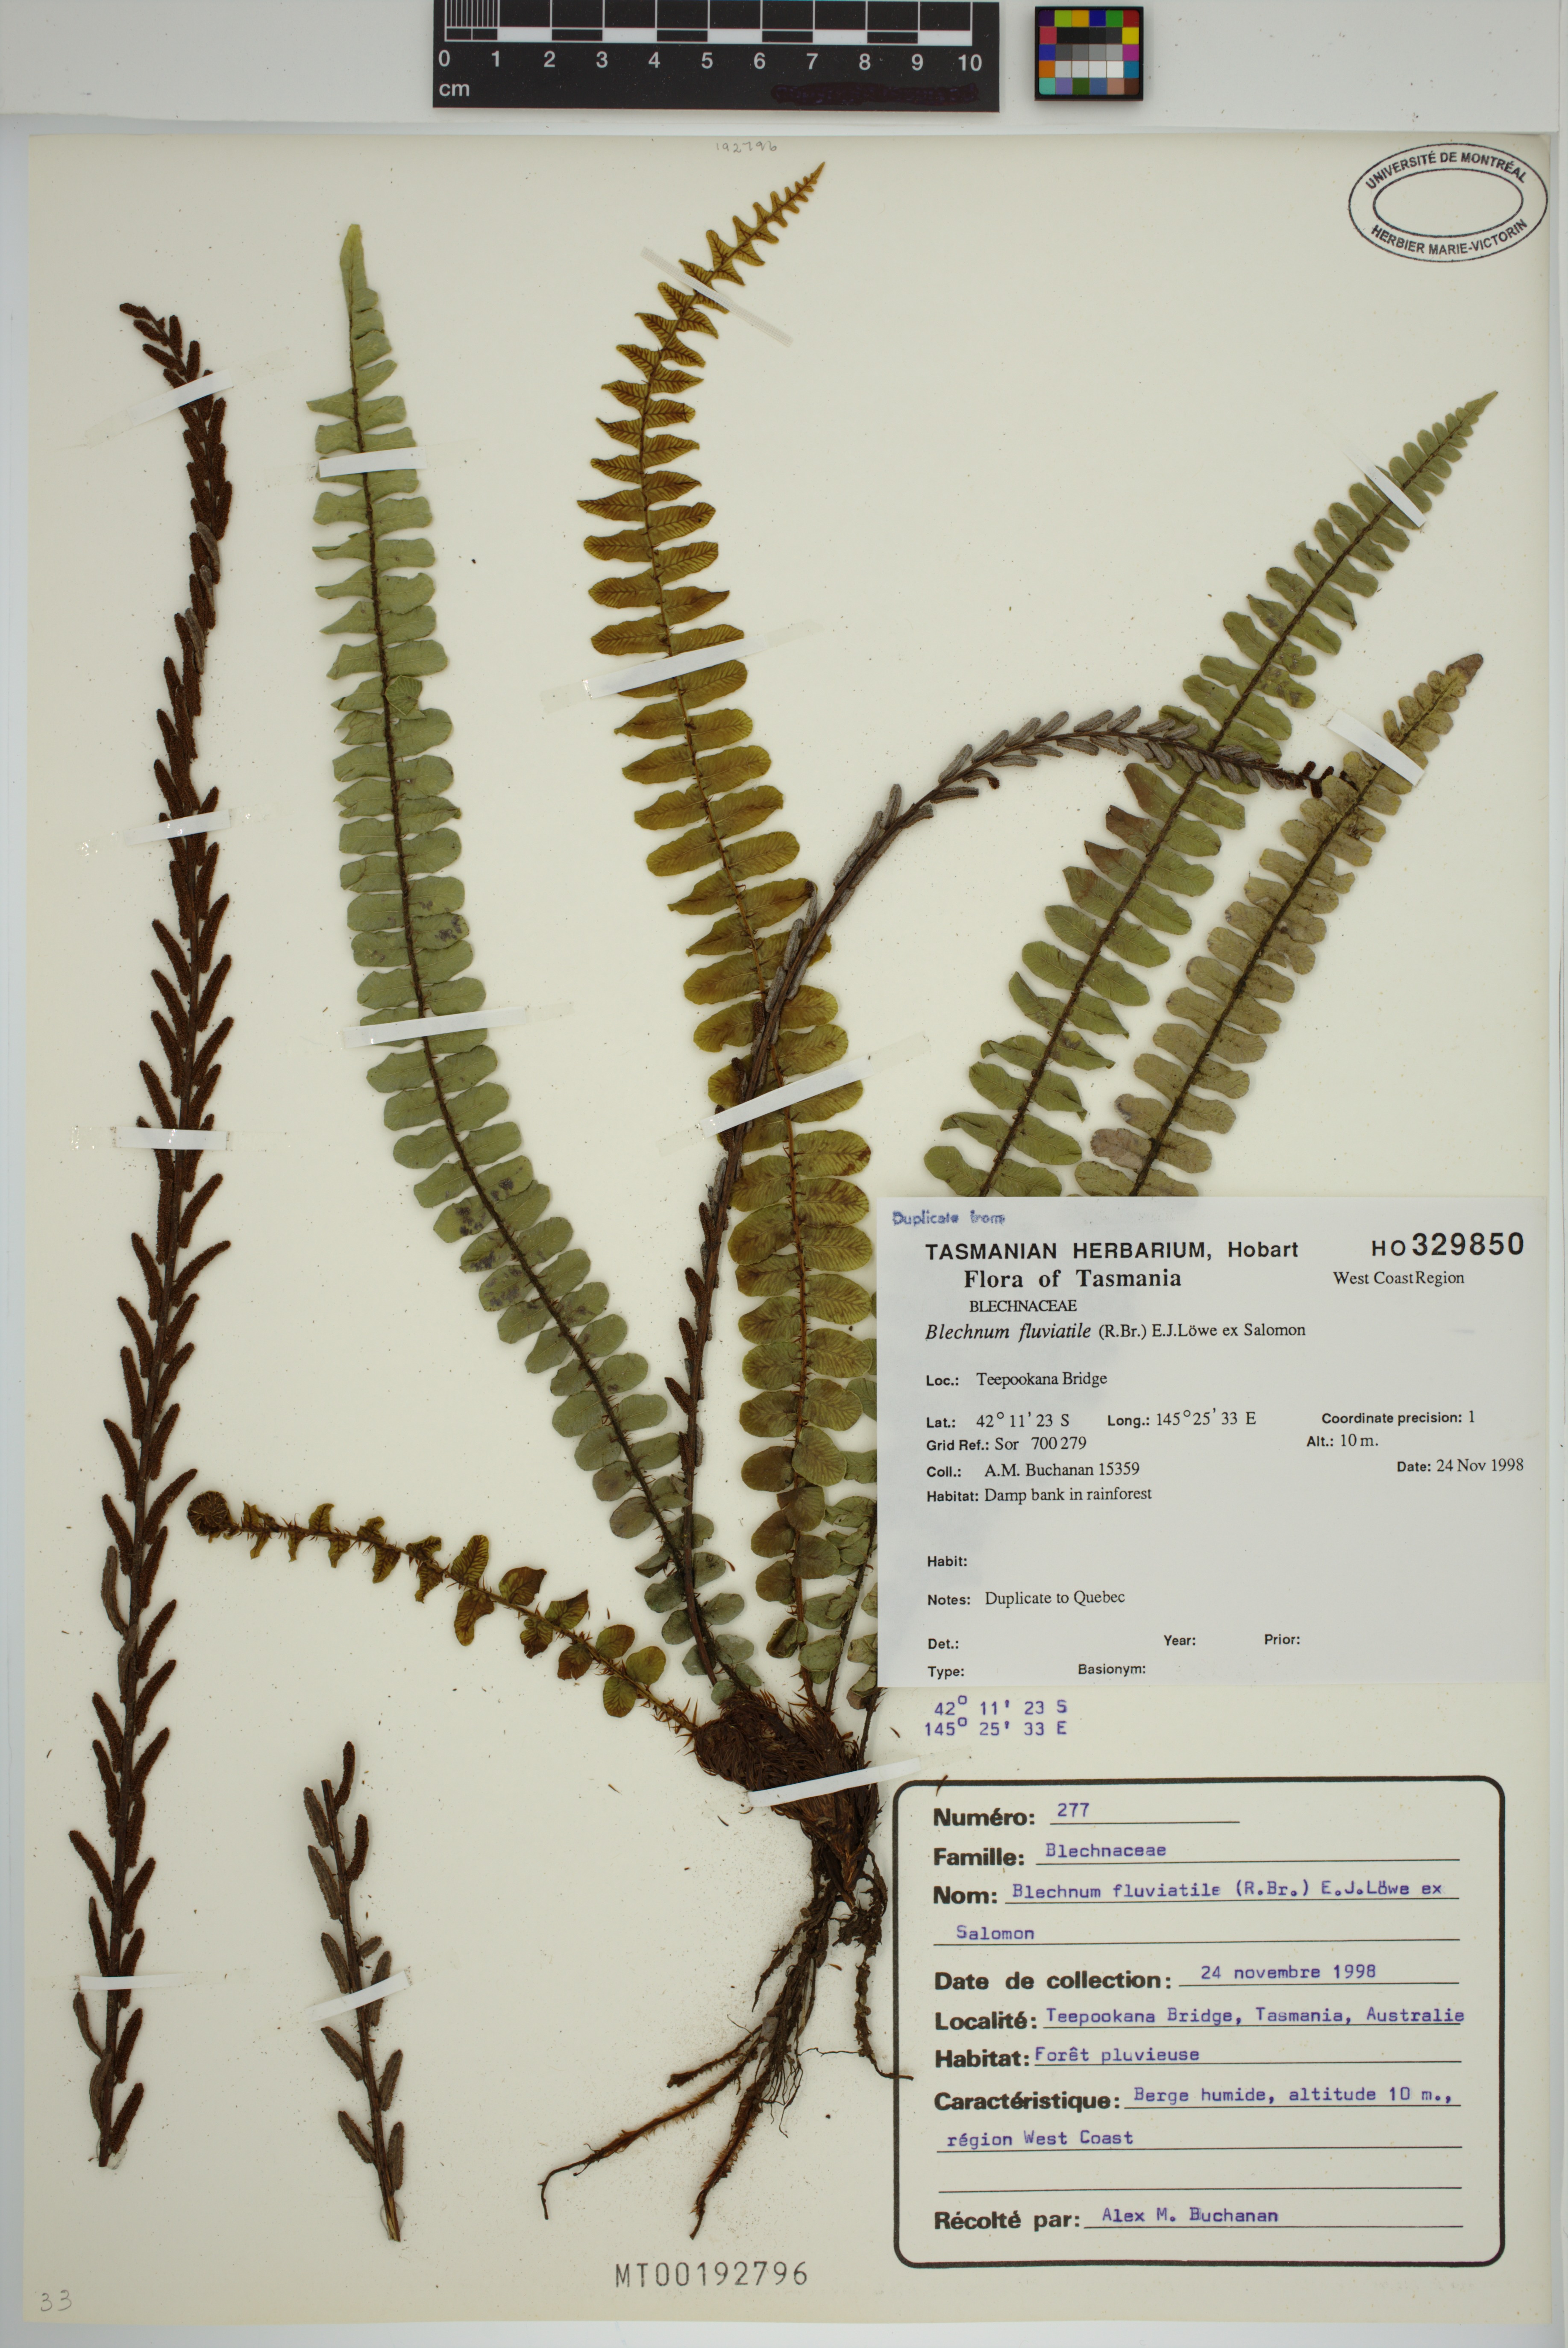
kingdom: Plantae
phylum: Tracheophyta
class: Polypodiopsida
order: Polypodiales
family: Blechnaceae
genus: Cranfillia
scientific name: Cranfillia fluviatilis
